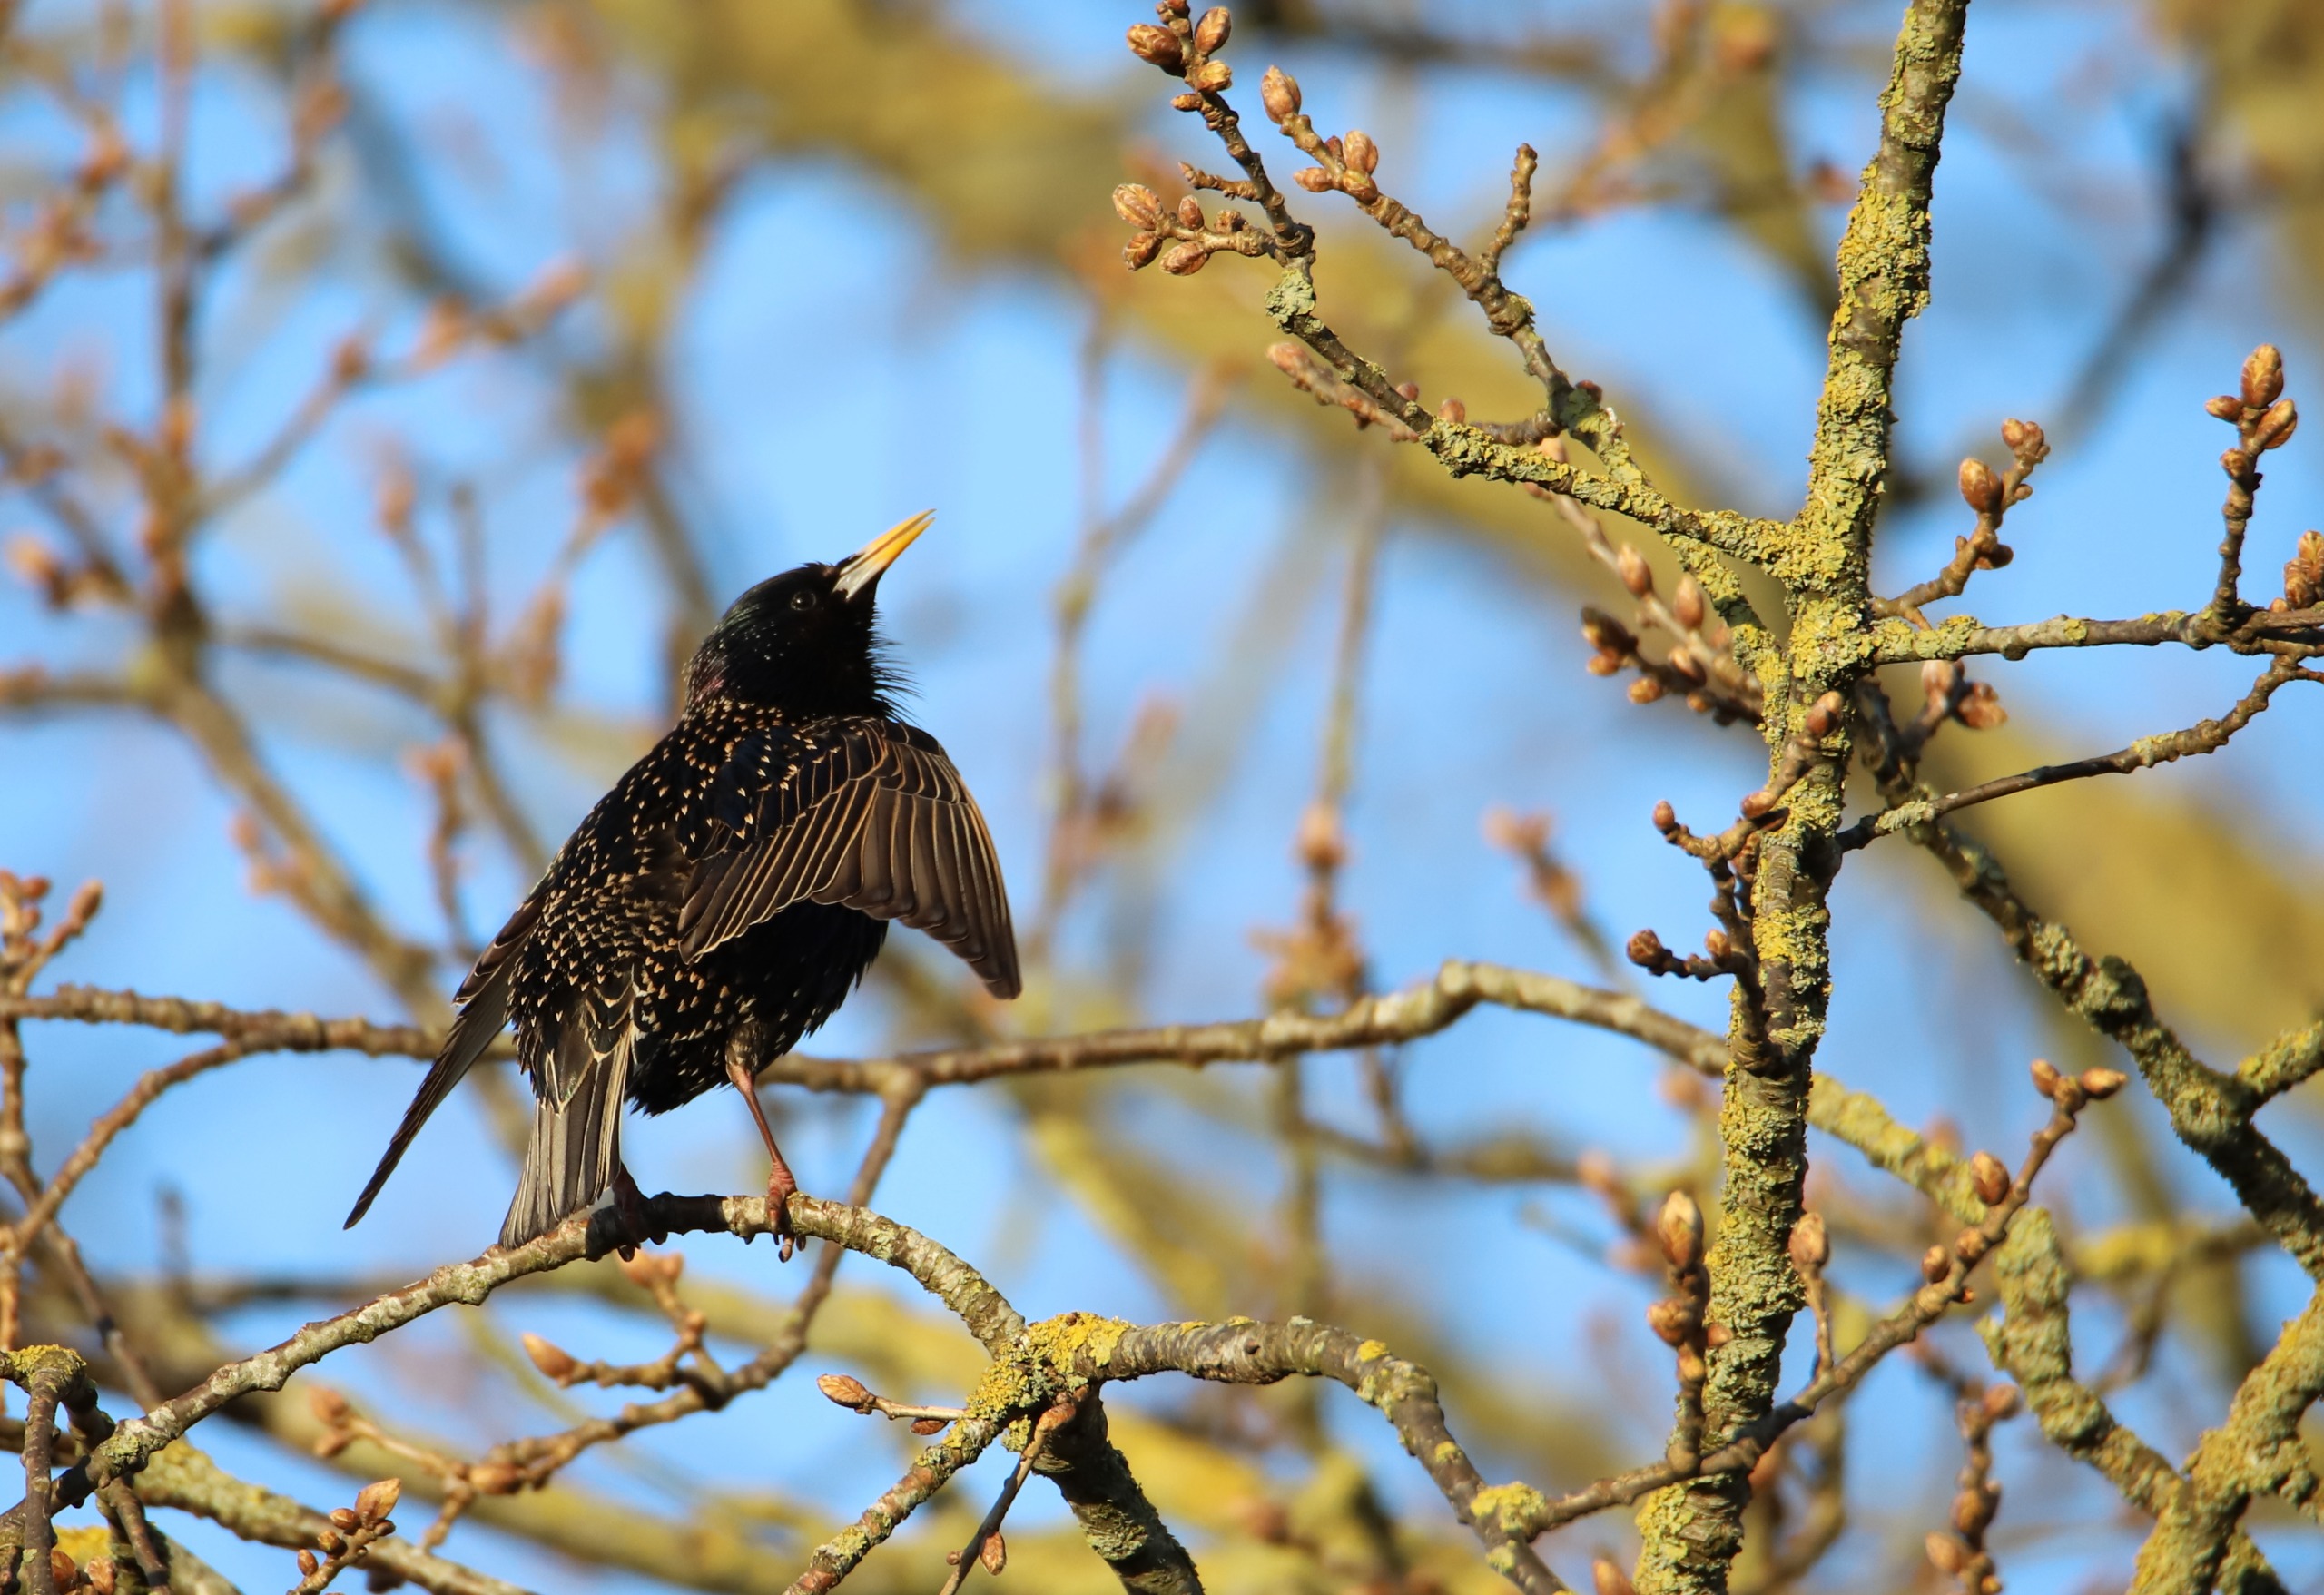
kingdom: Animalia
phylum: Chordata
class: Aves
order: Passeriformes
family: Sturnidae
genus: Sturnus
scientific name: Sturnus vulgaris
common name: Stær
